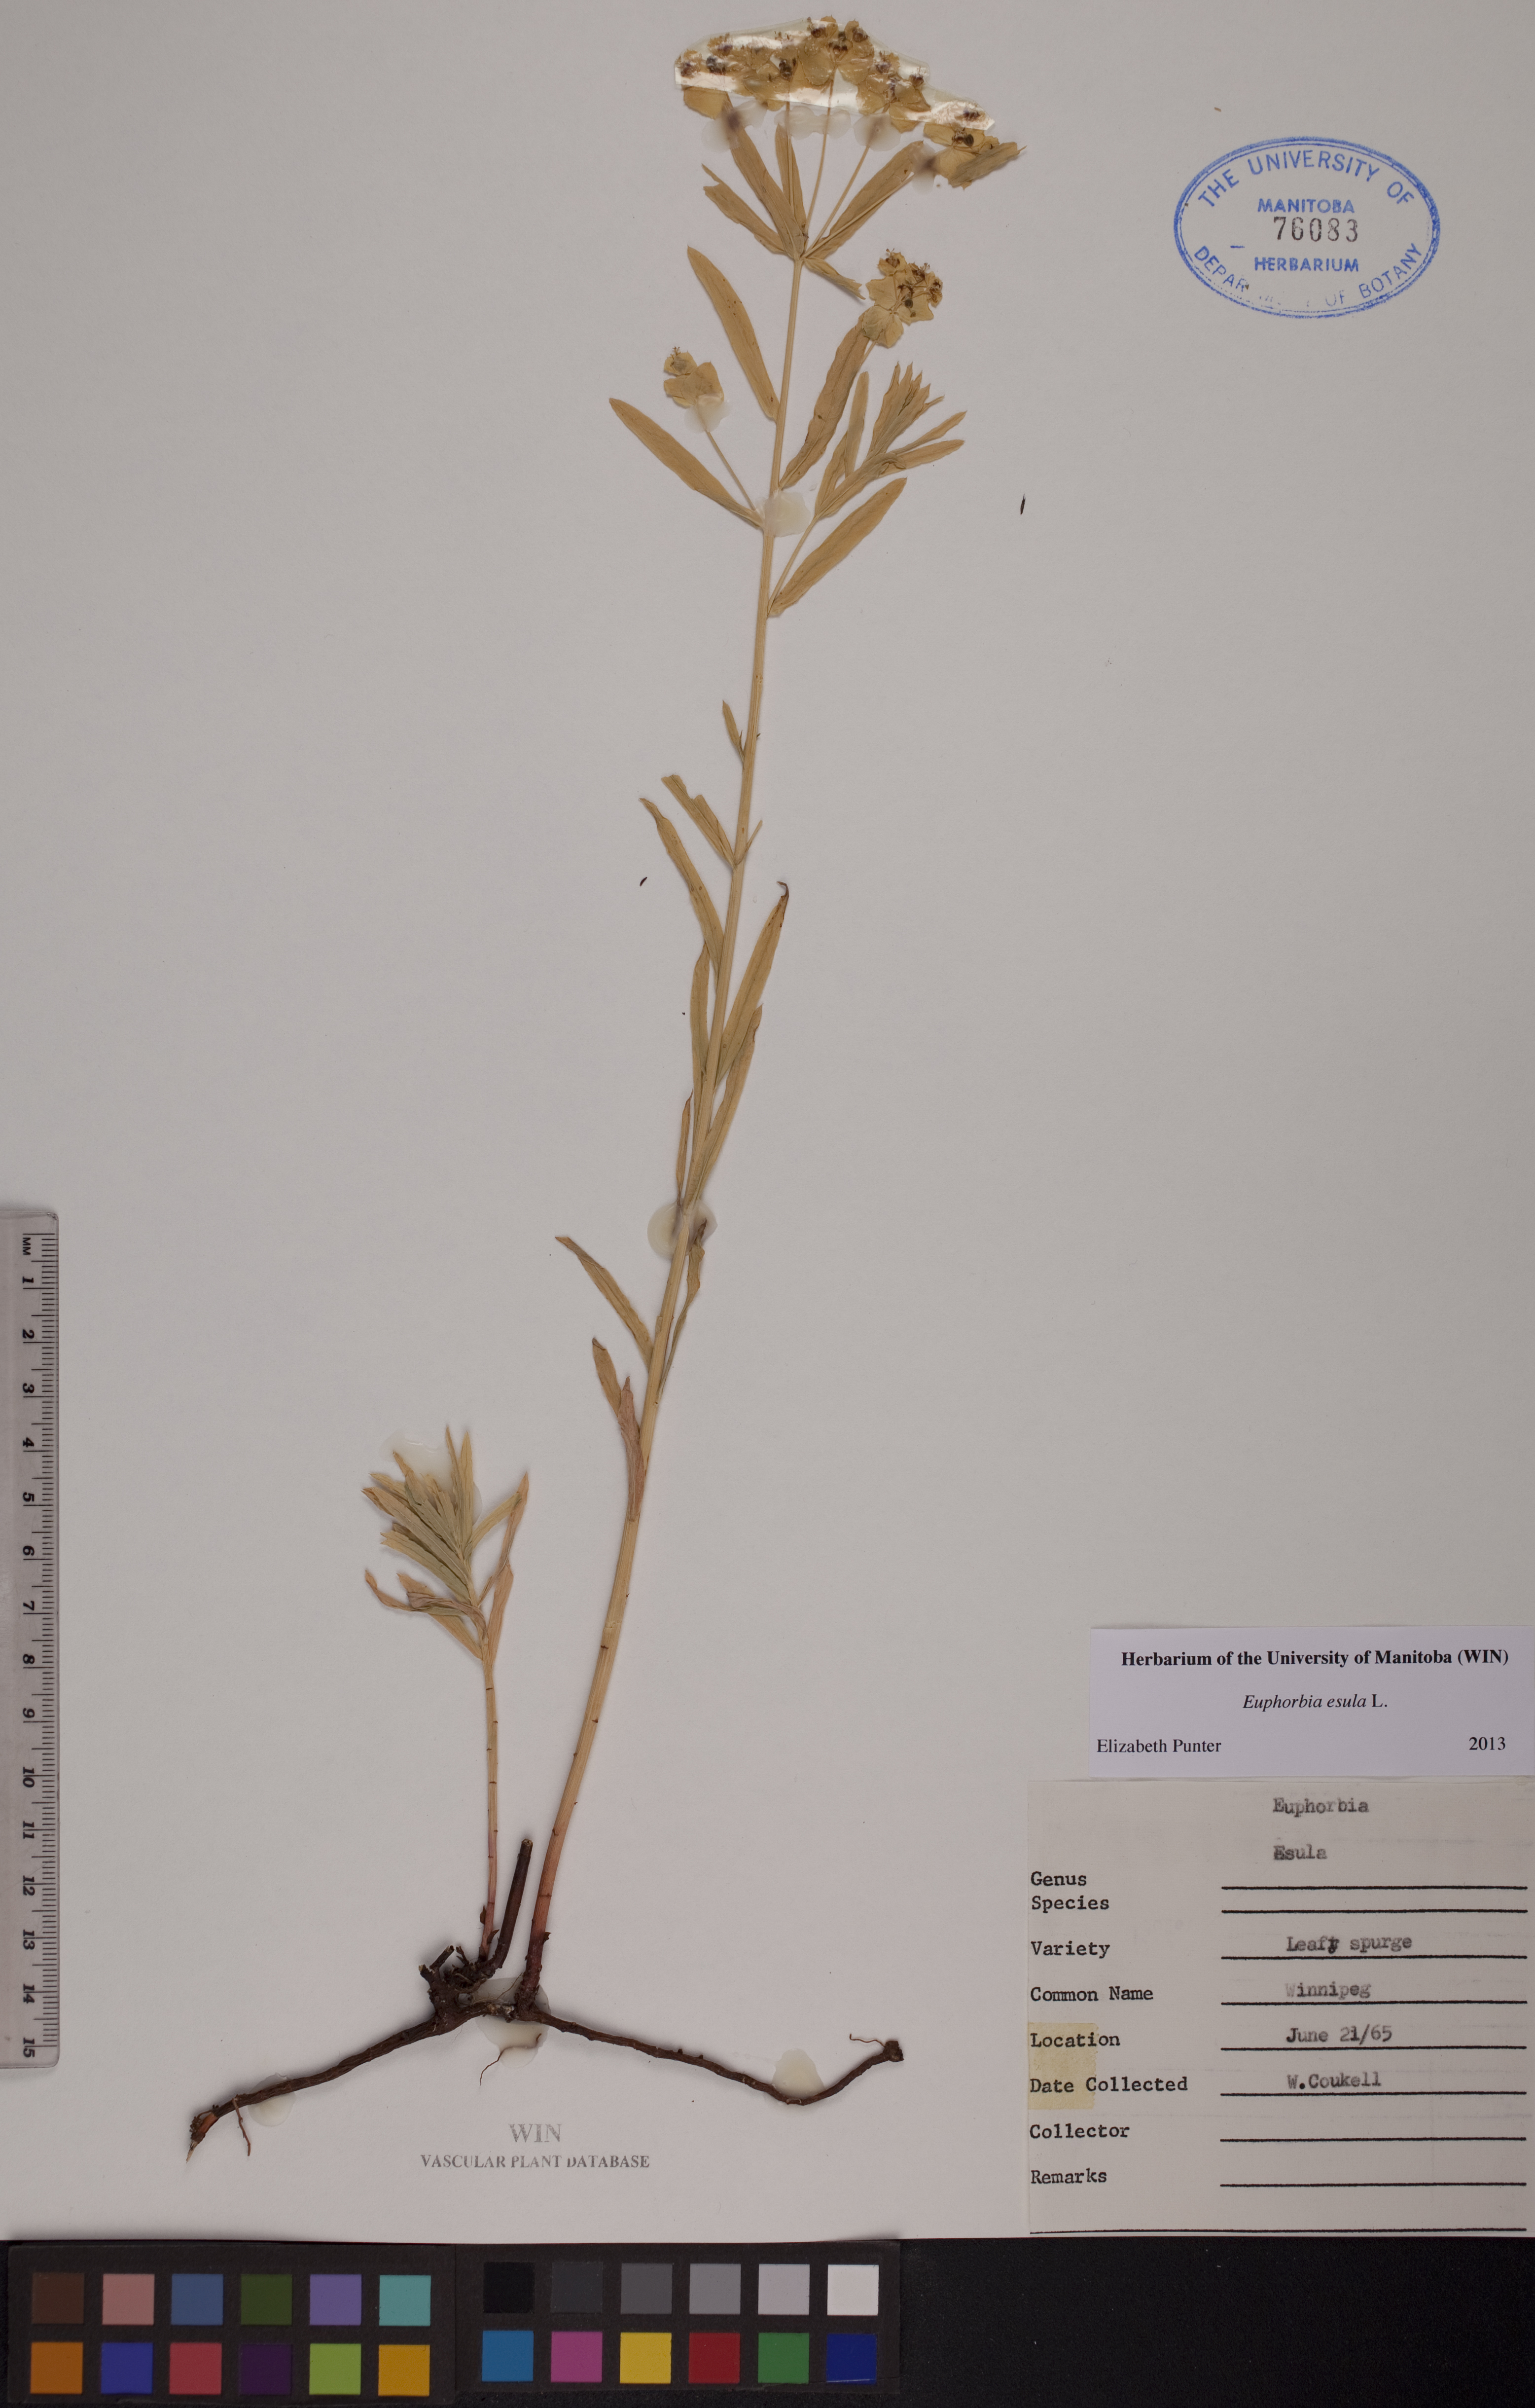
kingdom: Plantae
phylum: Tracheophyta
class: Magnoliopsida
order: Malpighiales
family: Euphorbiaceae
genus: Euphorbia
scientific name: Euphorbia esula
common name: Leafy spurge
